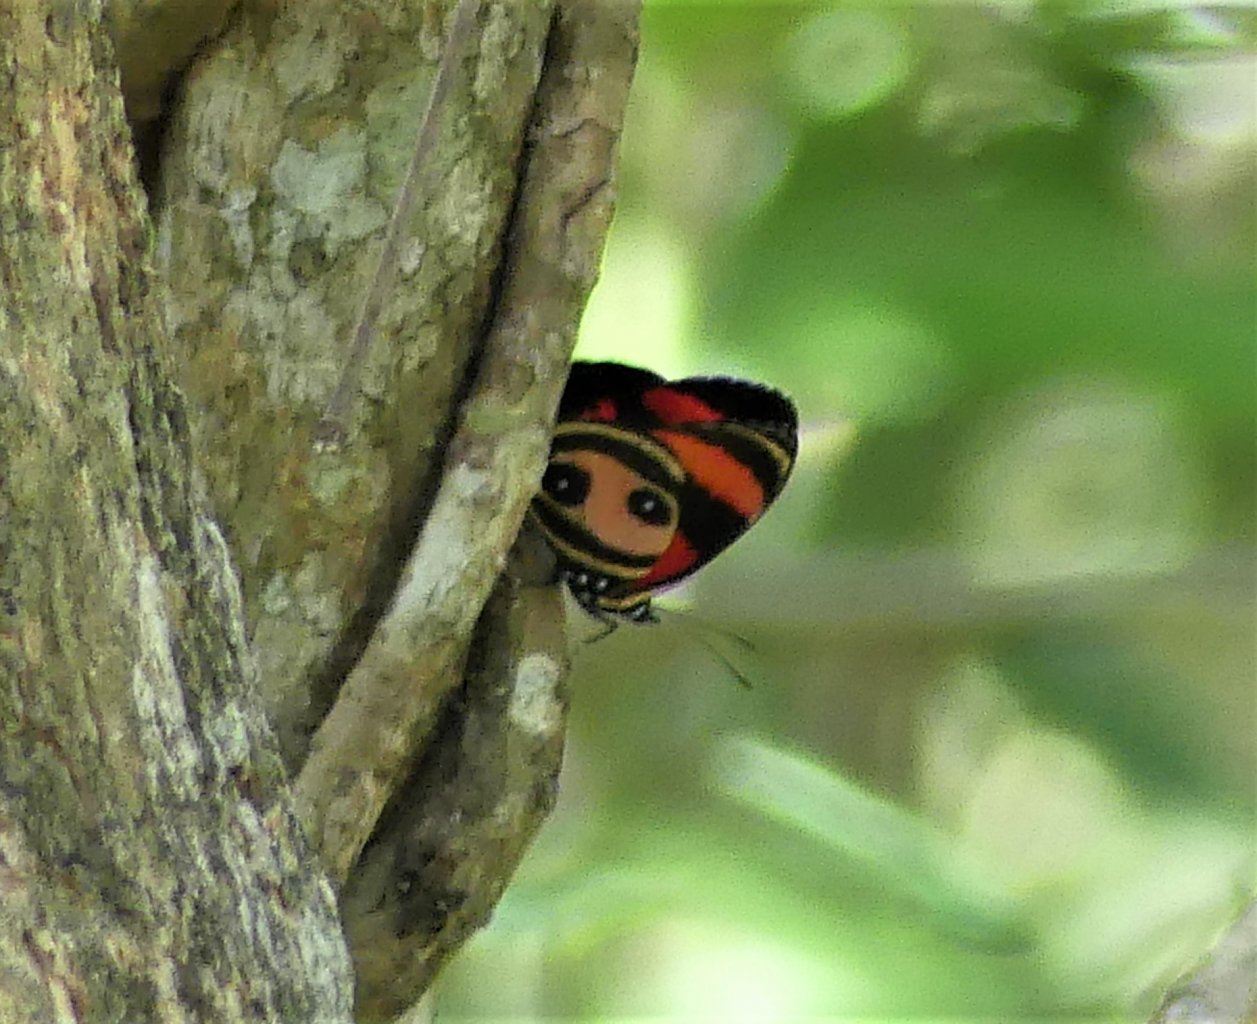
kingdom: Animalia
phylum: Arthropoda
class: Insecta
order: Lepidoptera
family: Nymphalidae
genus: Catagramma
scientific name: Catagramma Callicore pitheas
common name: Two-eyed Eighty-eight
